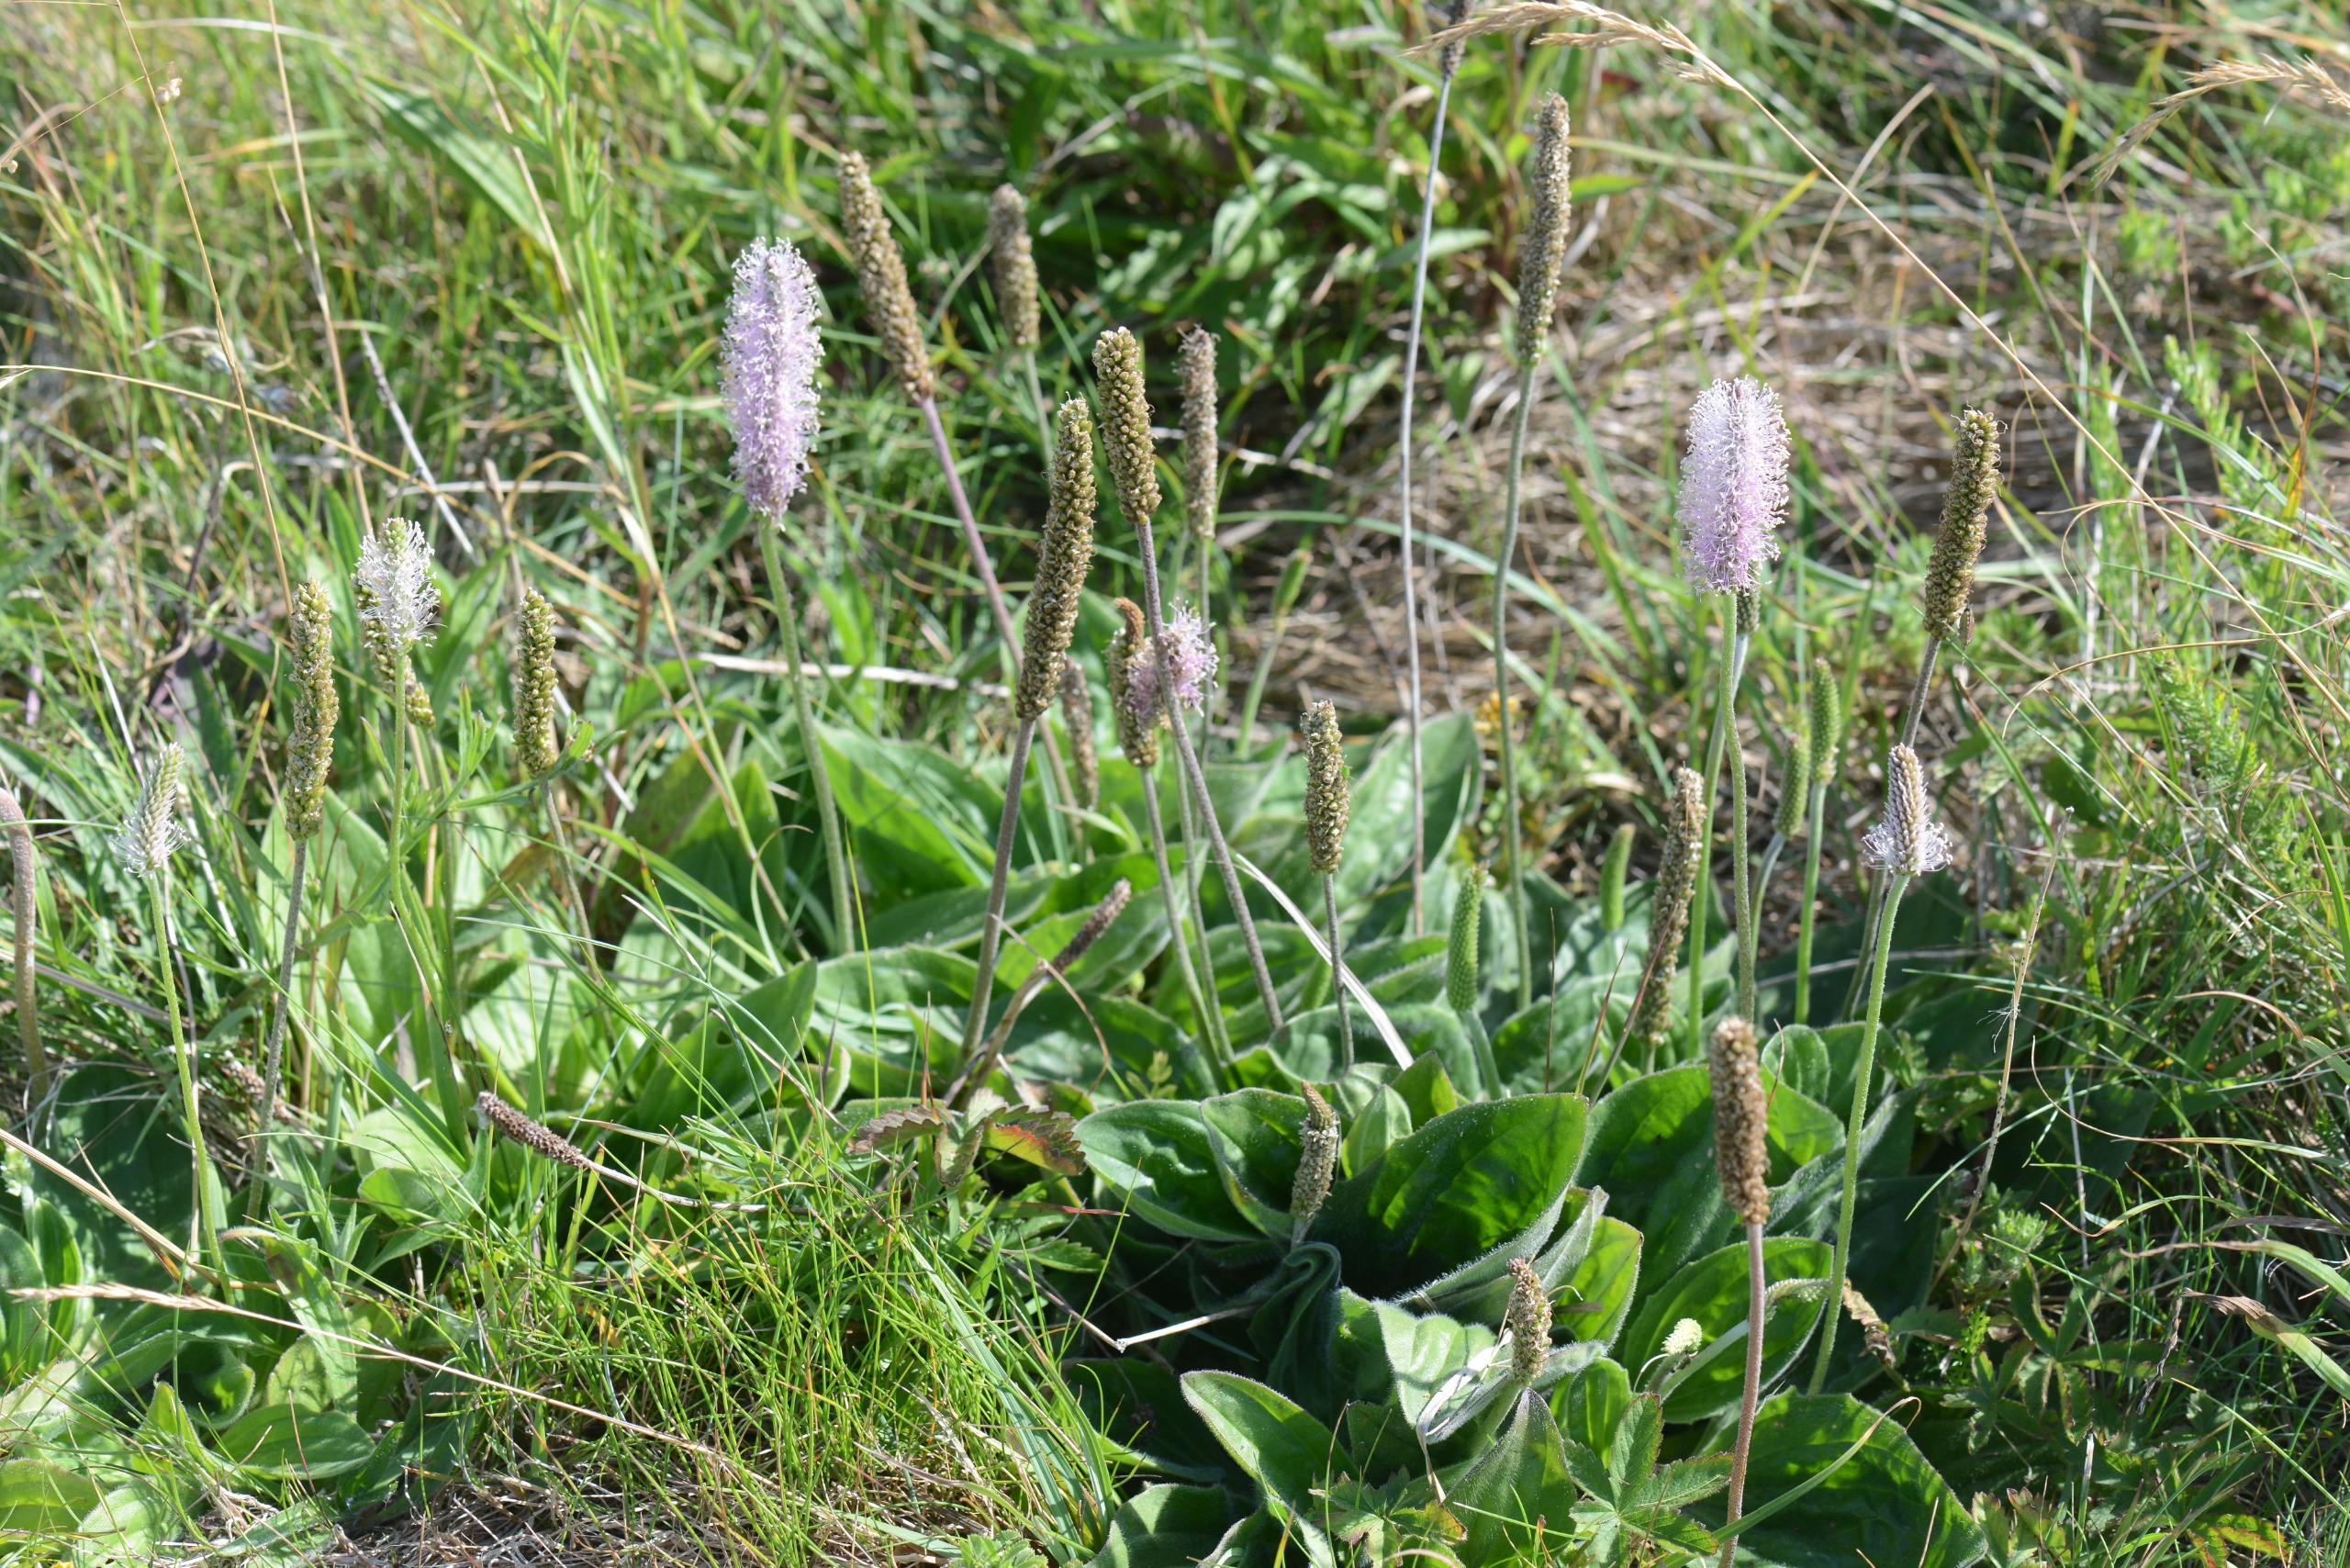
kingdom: Plantae
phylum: Tracheophyta
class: Magnoliopsida
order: Lamiales
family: Plantaginaceae
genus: Plantago
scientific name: Plantago media
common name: Dunet vejbred
